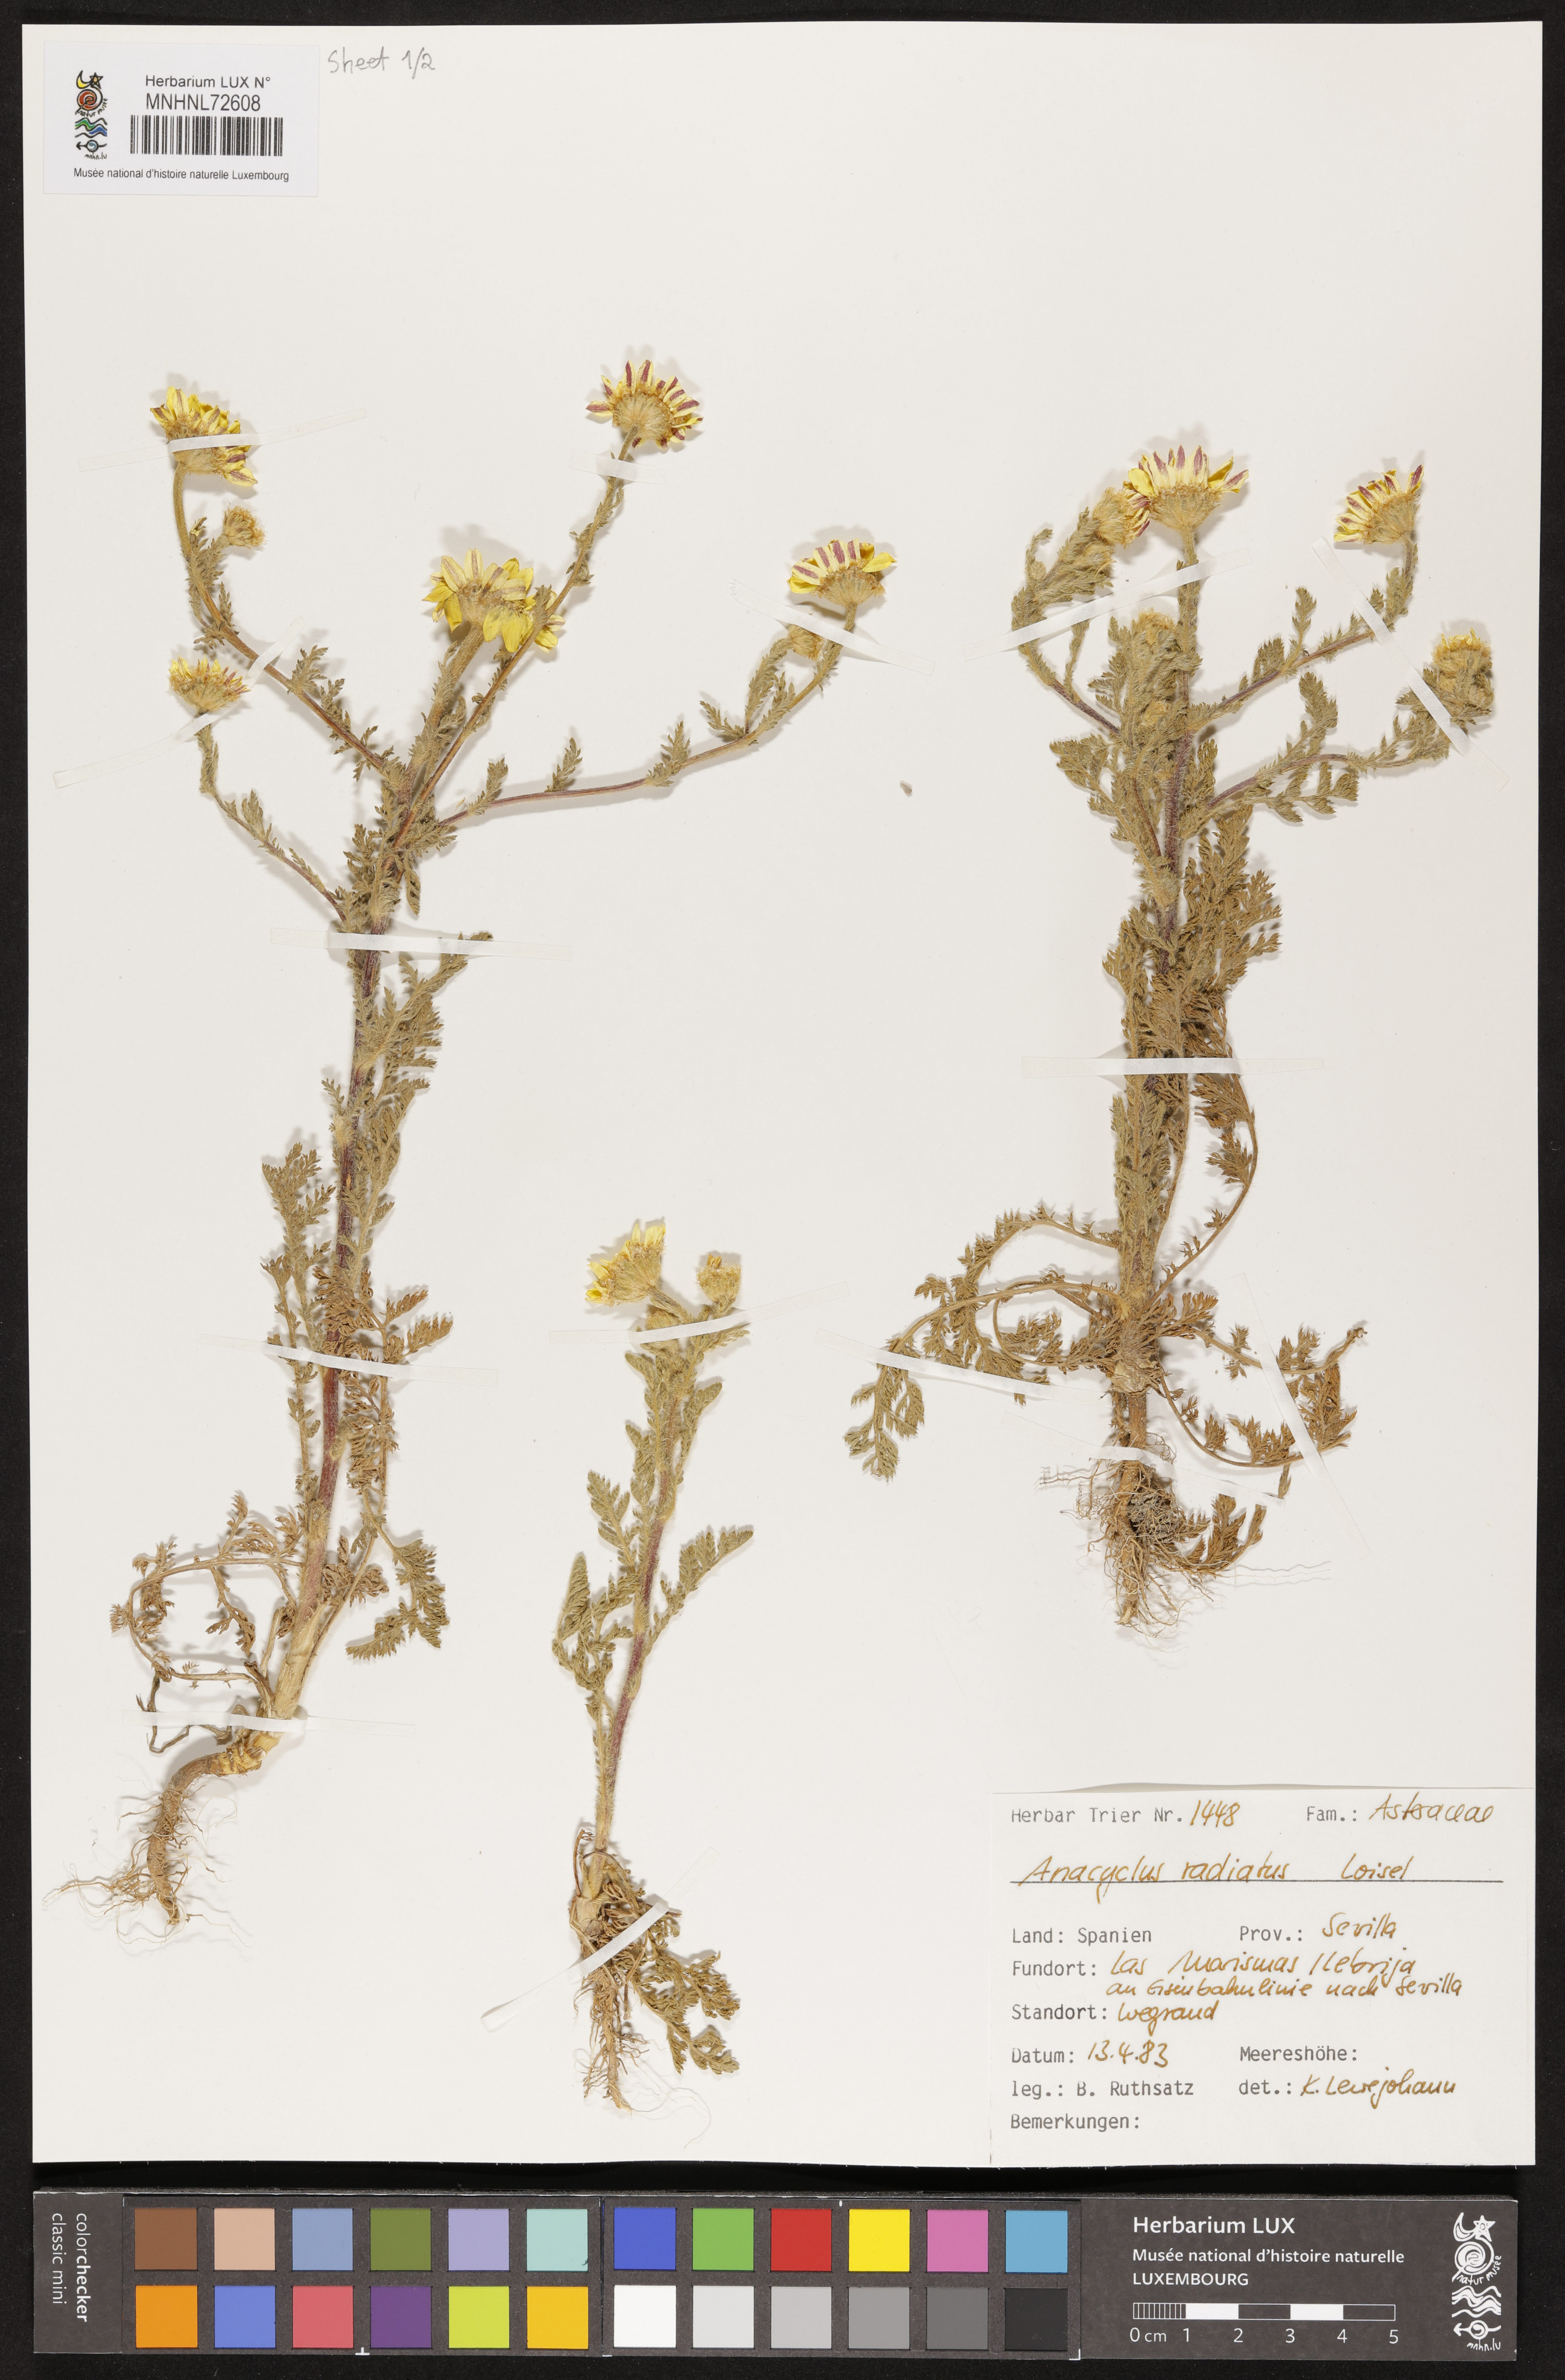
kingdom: Plantae
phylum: Tracheophyta
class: Magnoliopsida
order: Asterales
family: Asteraceae
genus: Anacyclus
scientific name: Anacyclus radiatus
